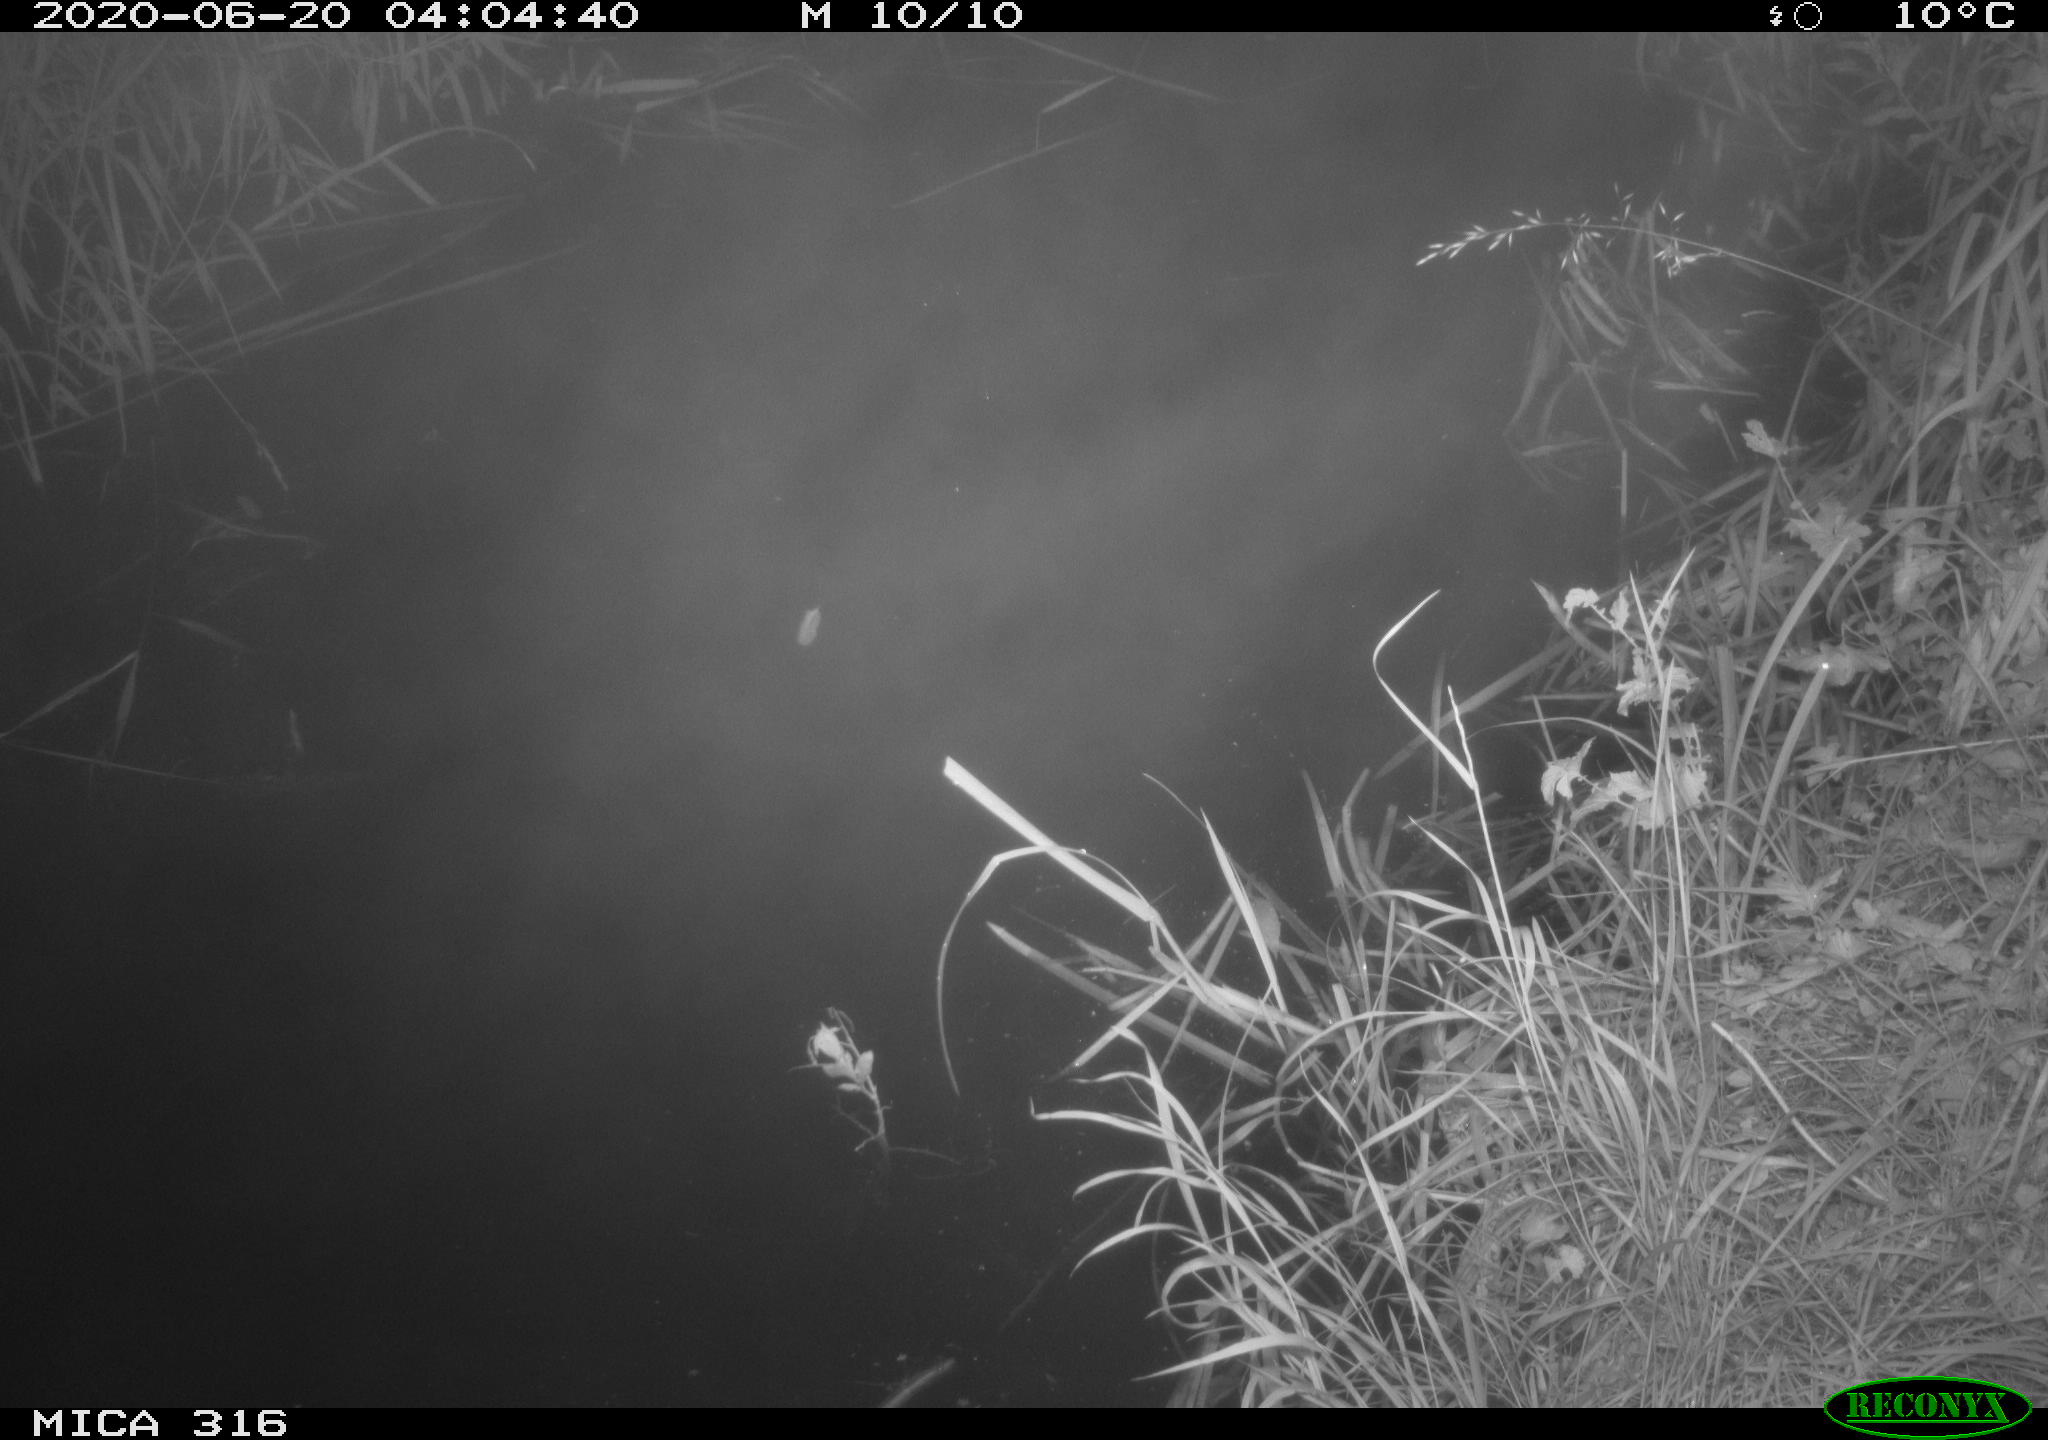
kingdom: Animalia
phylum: Chordata
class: Aves
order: Anseriformes
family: Anatidae
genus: Anas
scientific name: Anas platyrhynchos
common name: Mallard
